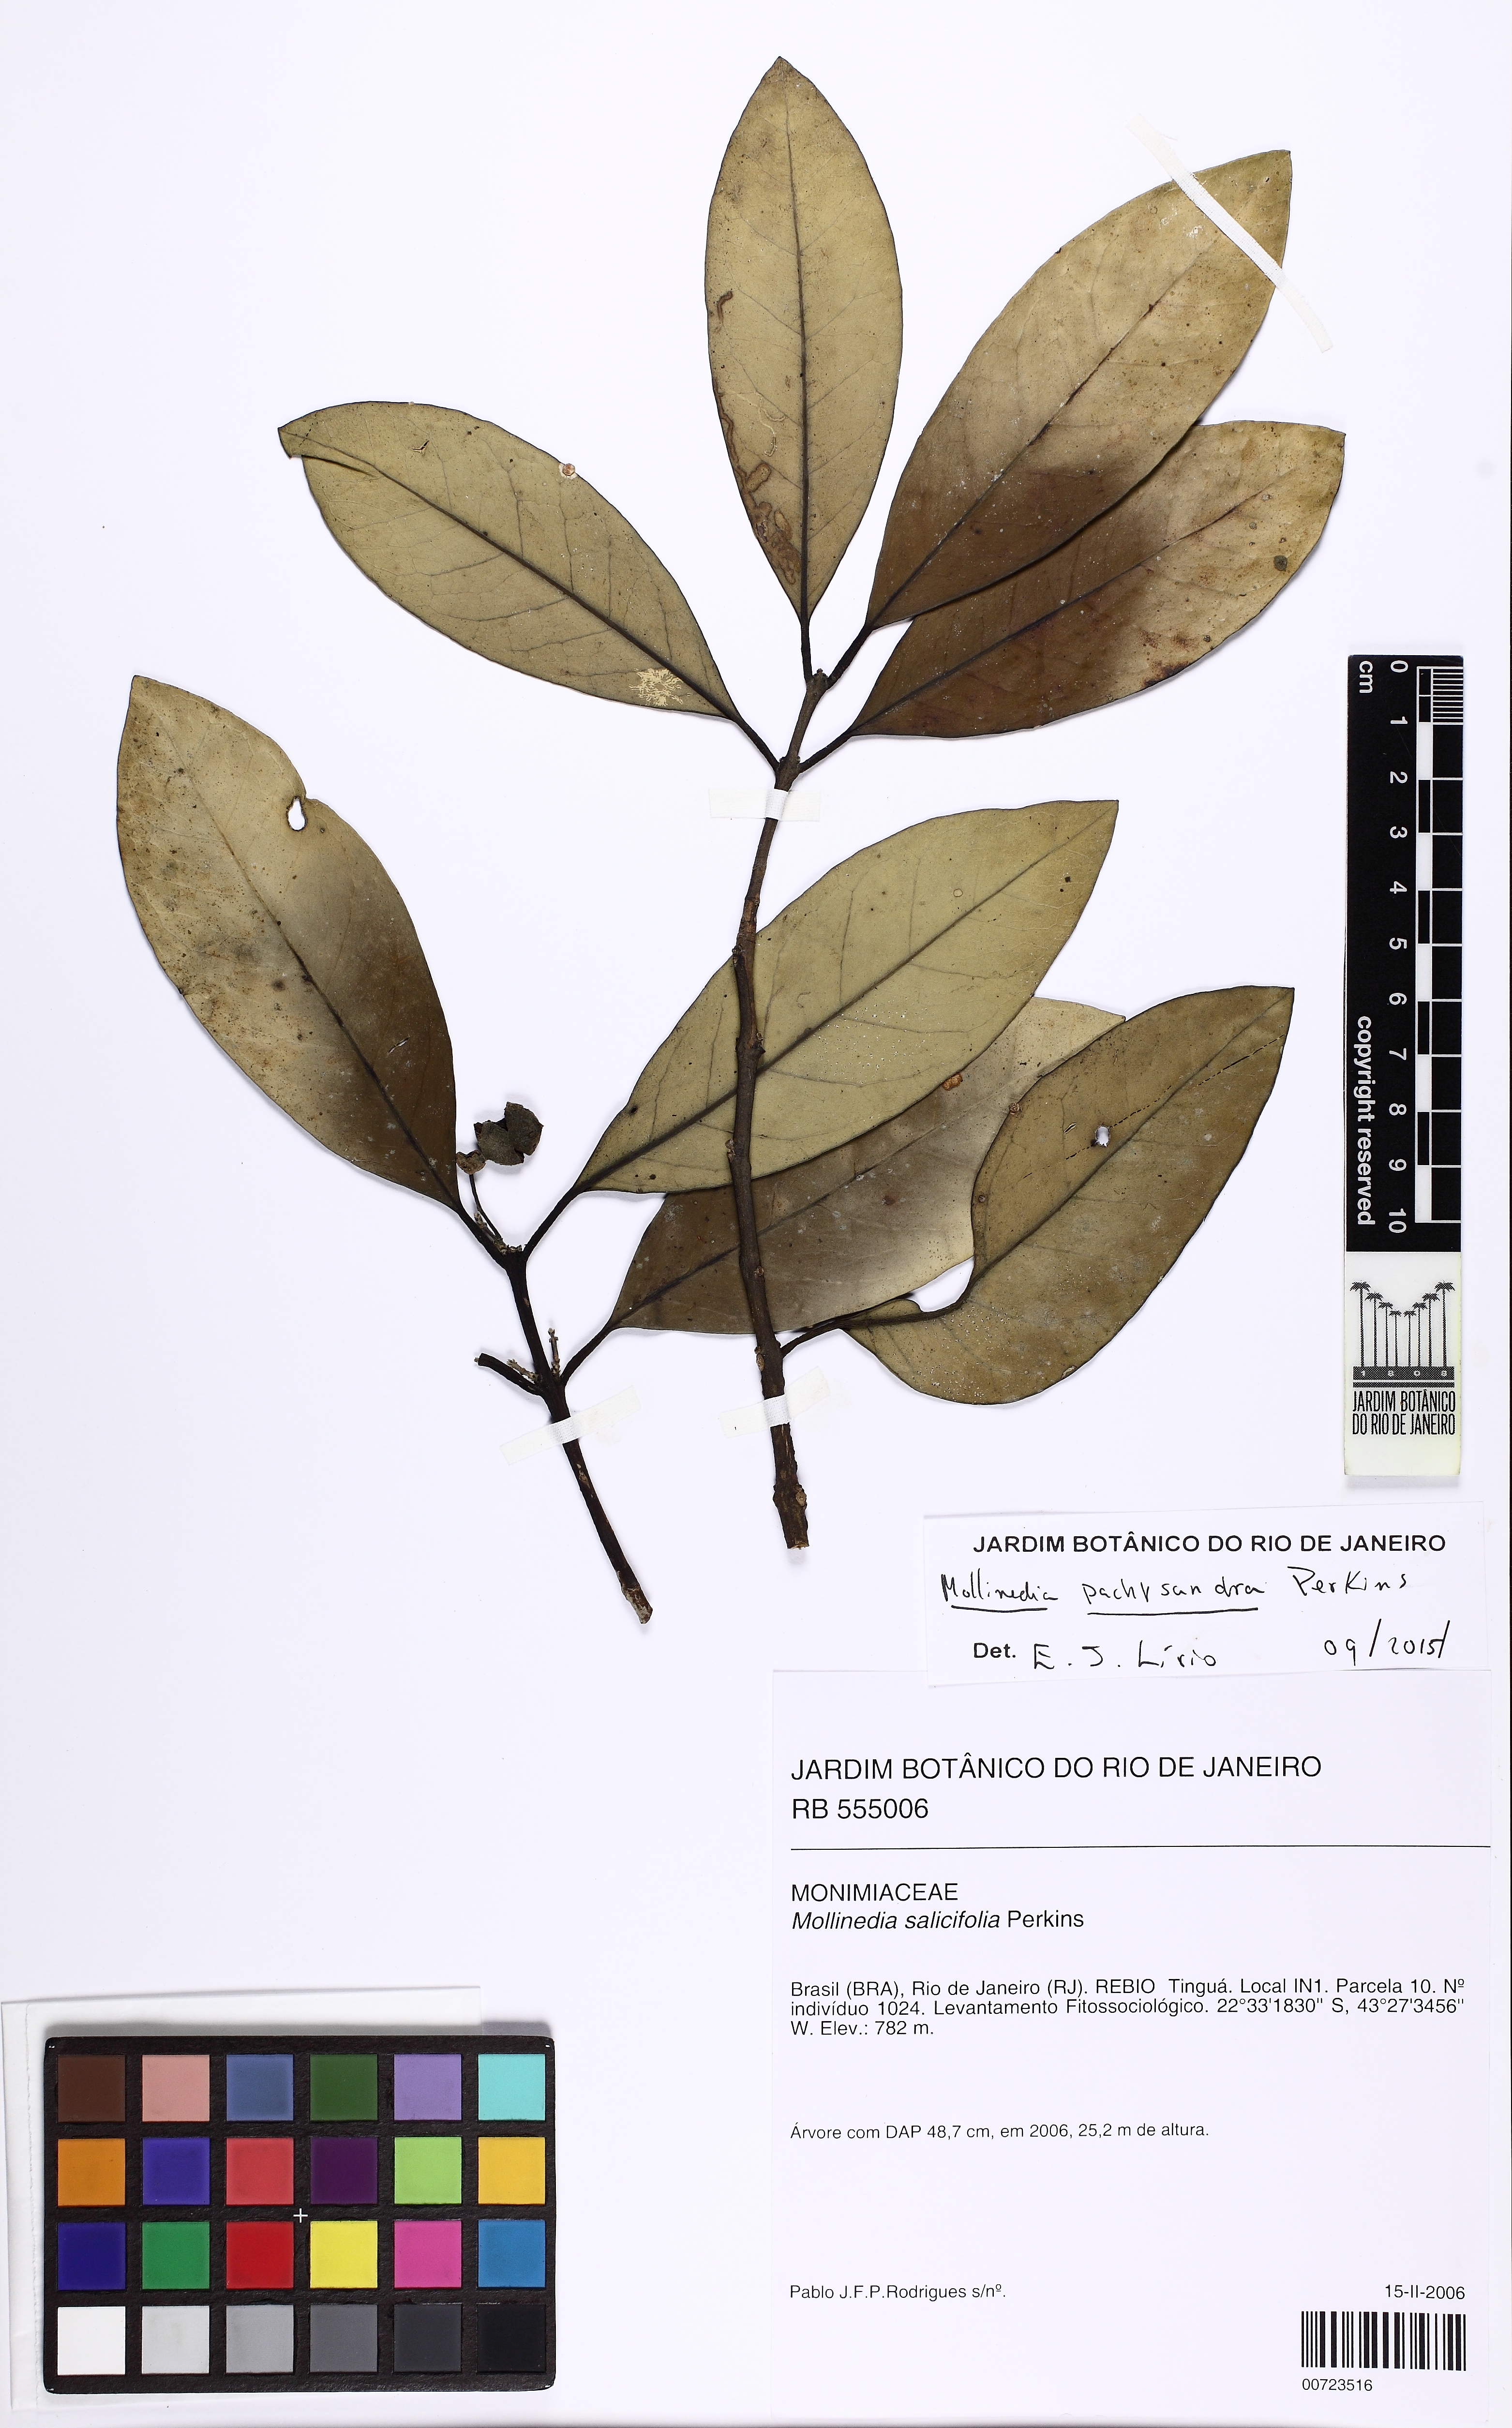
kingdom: Plantae
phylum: Tracheophyta
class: Magnoliopsida
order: Laurales
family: Monimiaceae
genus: Mollinedia
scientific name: Mollinedia pachysandra
